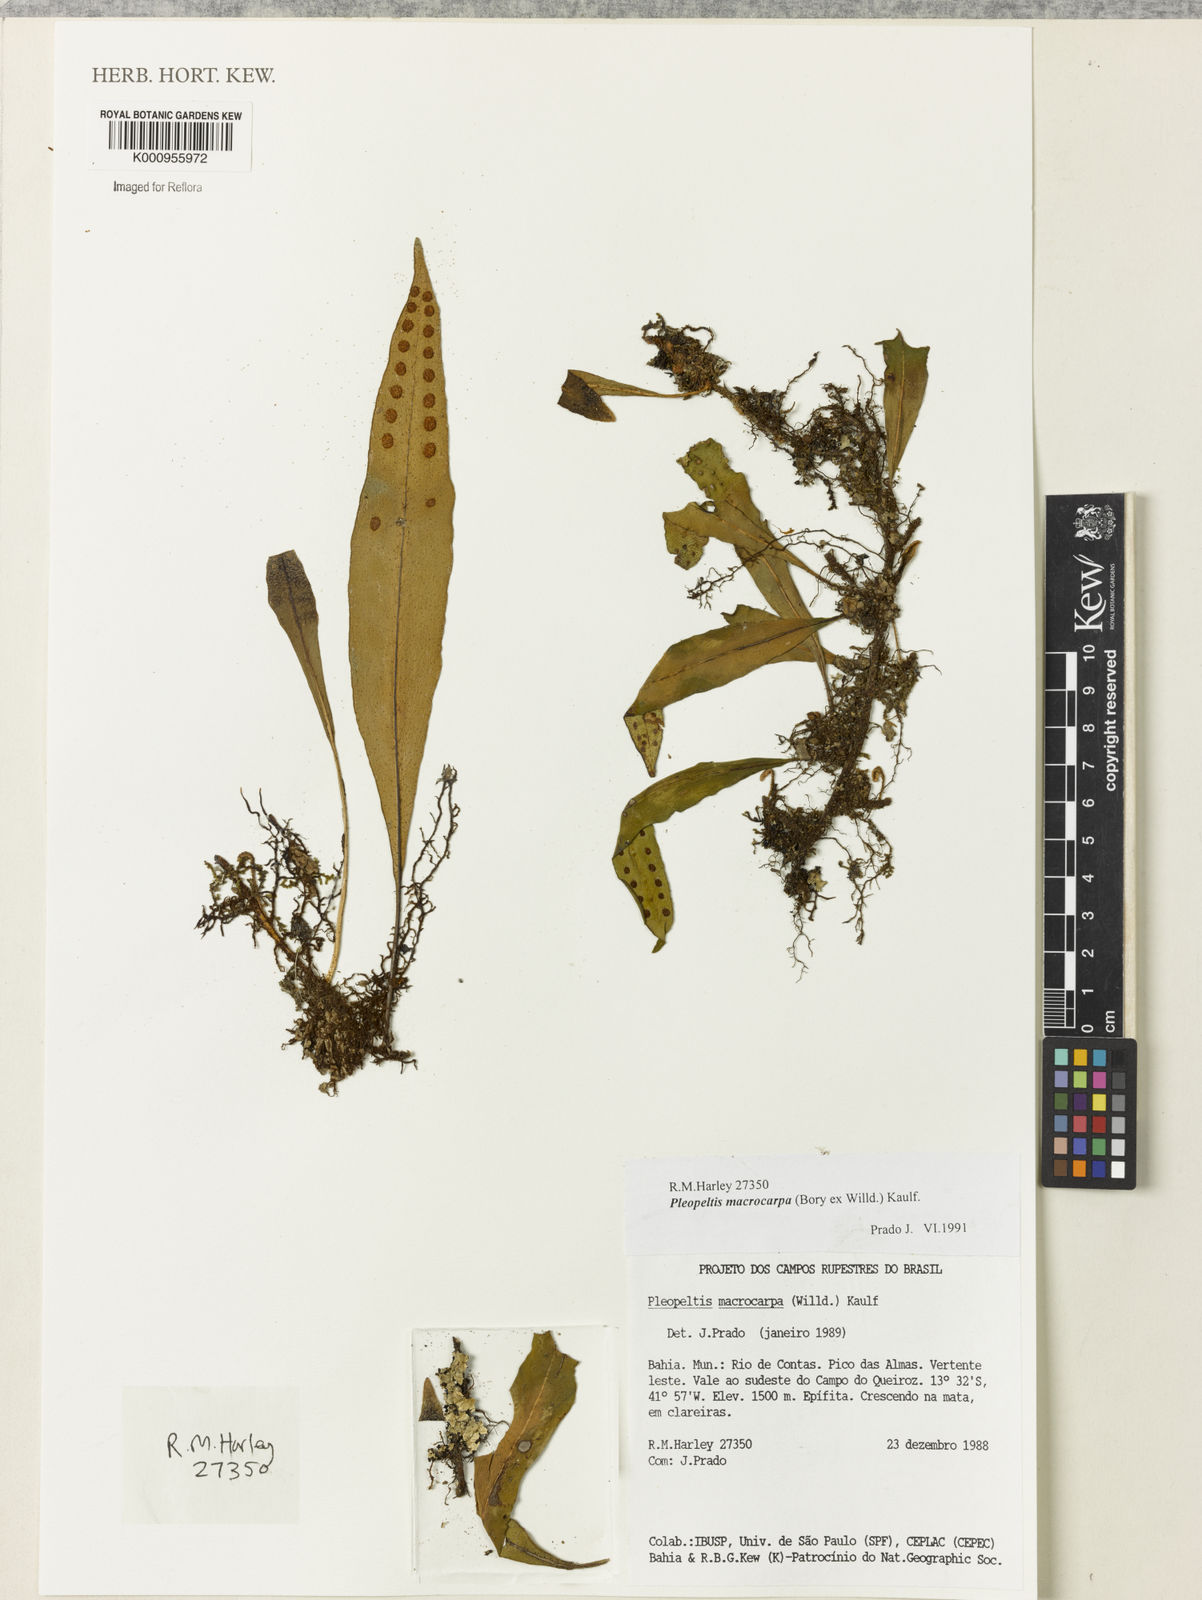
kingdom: Plantae
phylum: Tracheophyta
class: Polypodiopsida
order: Polypodiales
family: Polypodiaceae
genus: Pleopeltis
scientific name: Pleopeltis
